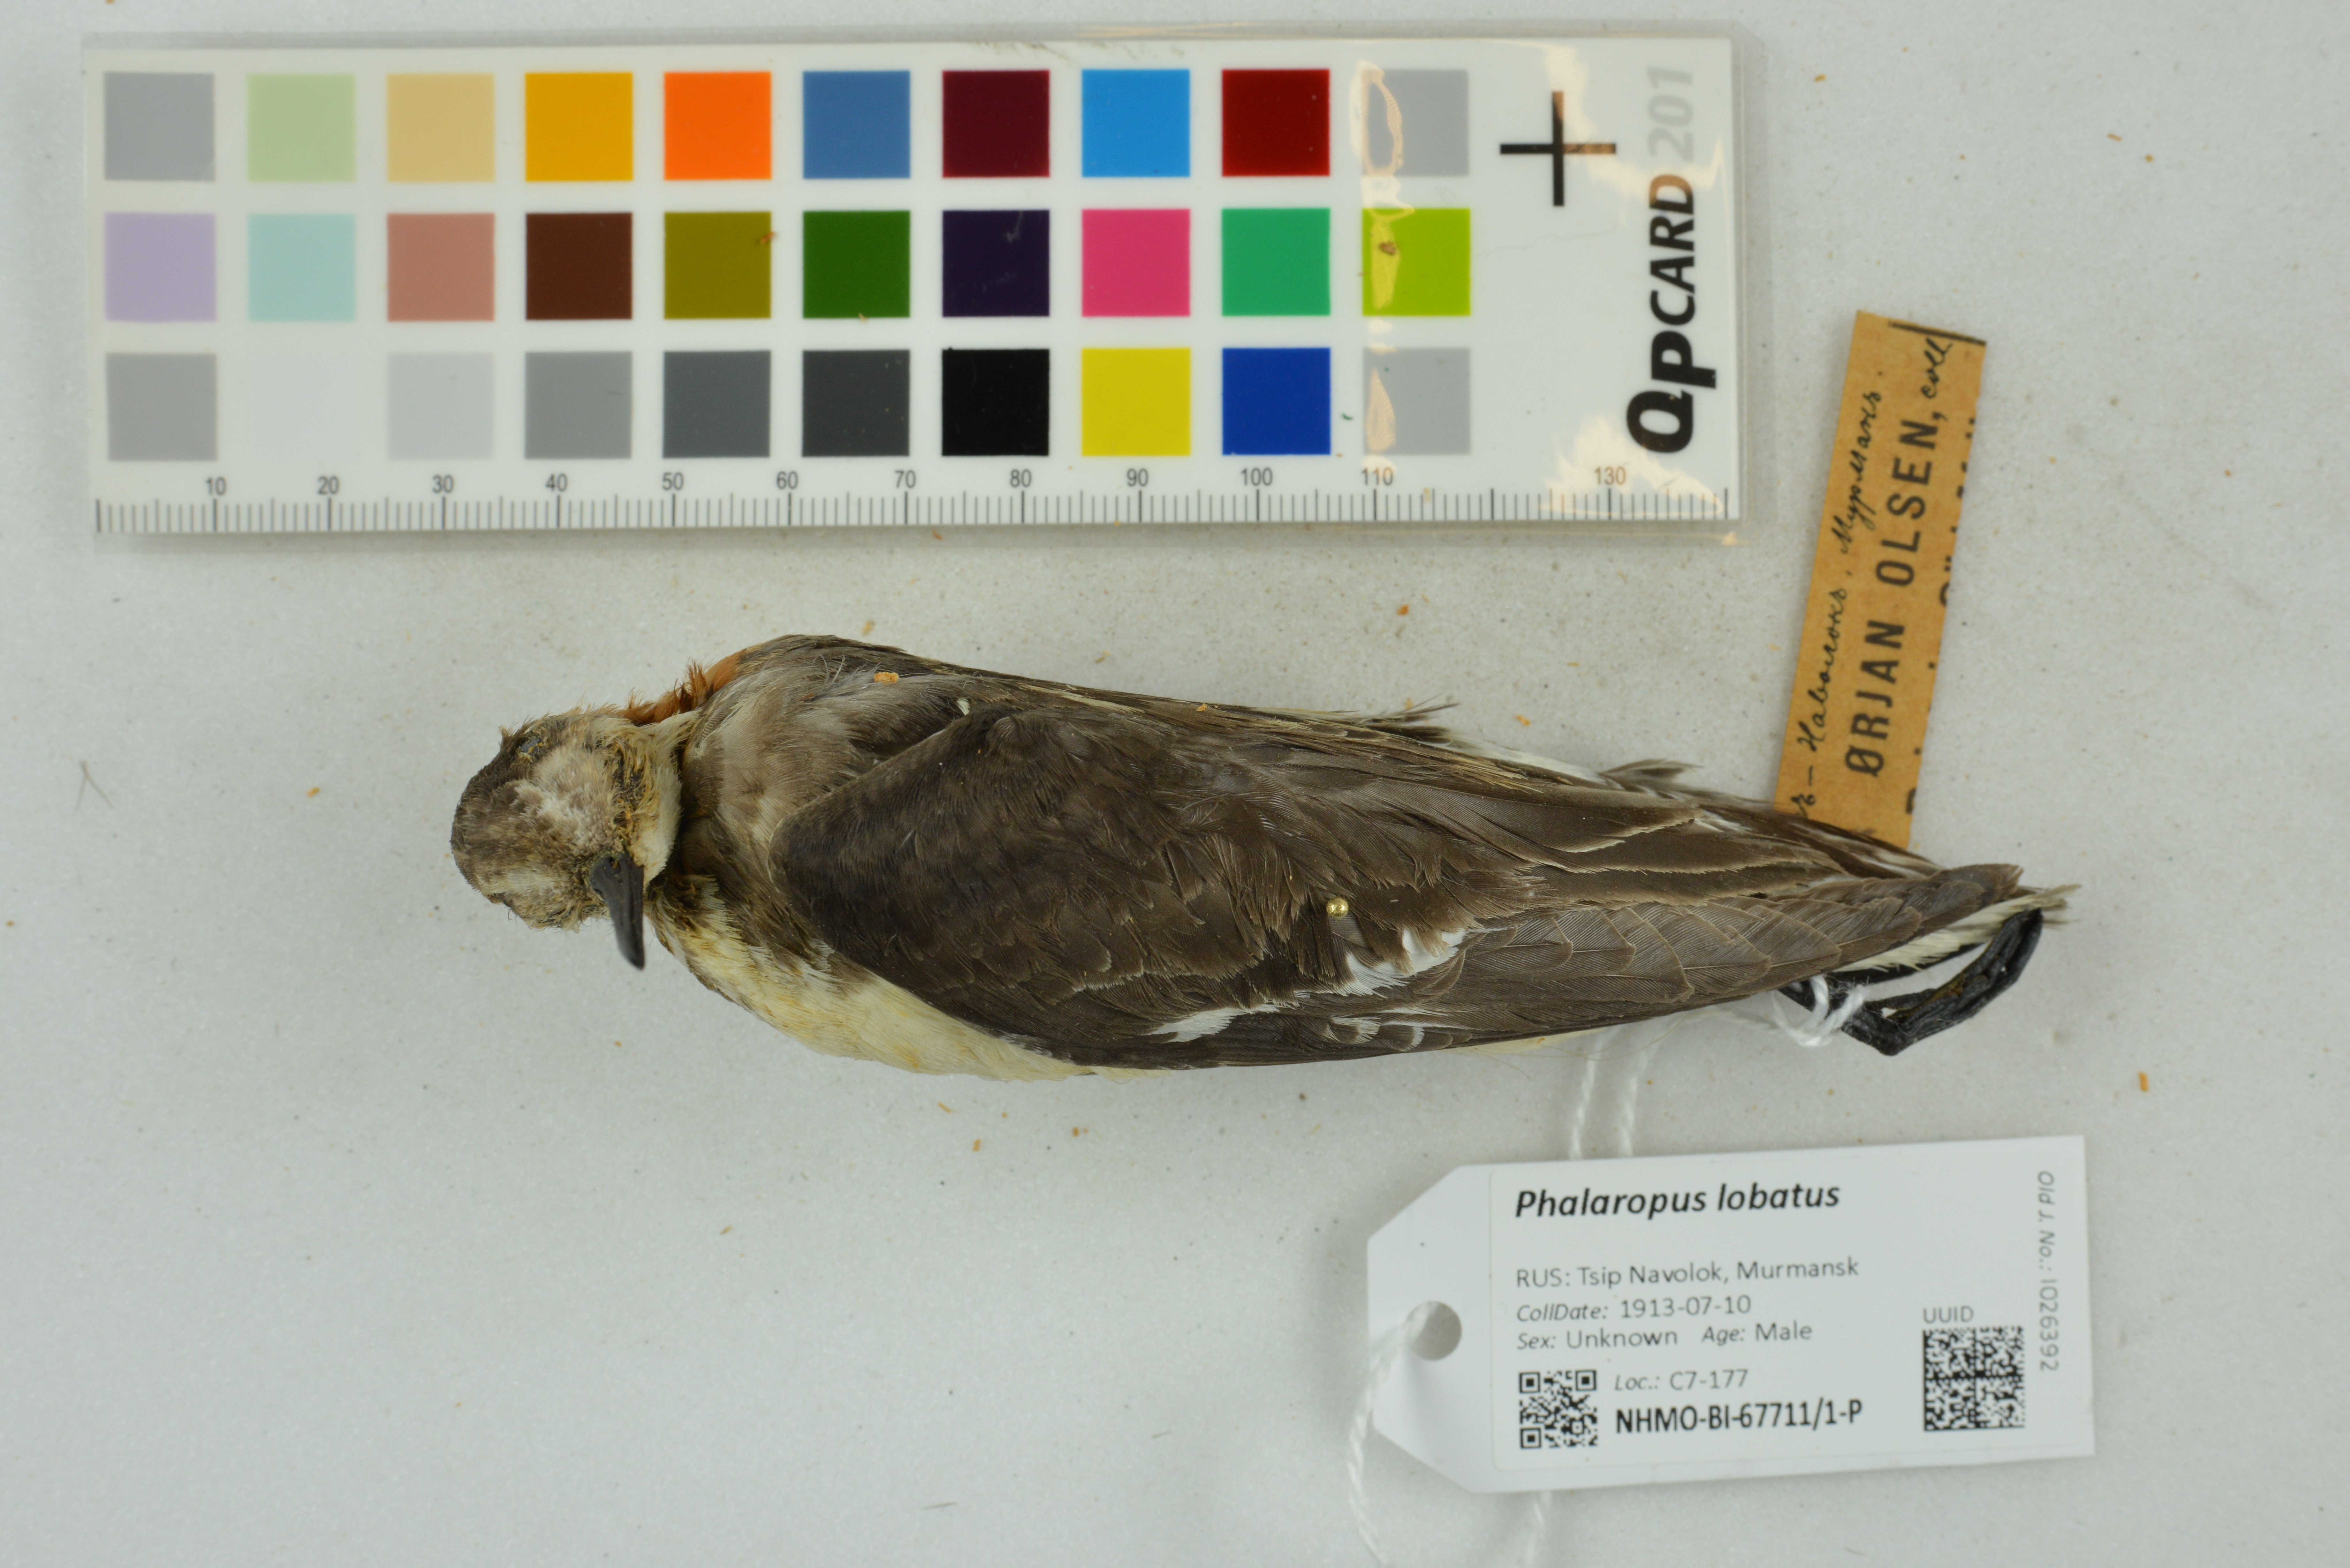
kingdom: Animalia
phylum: Chordata
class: Aves
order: Charadriiformes
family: Scolopacidae
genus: Phalaropus
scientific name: Phalaropus lobatus
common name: Red-necked phalarope
